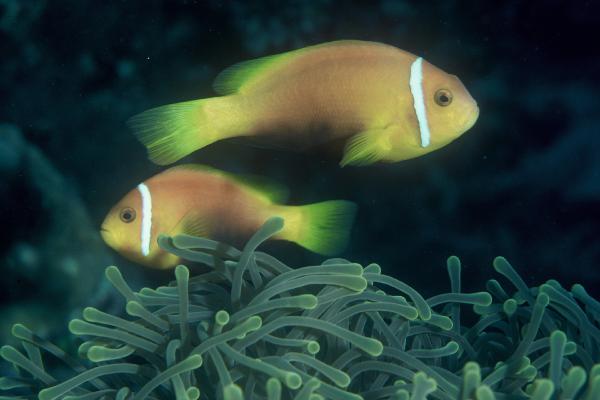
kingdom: Animalia
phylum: Chordata
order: Perciformes
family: Pomacentridae
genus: Amphiprion
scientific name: Amphiprion nigripes
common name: Maldive anemonefish
